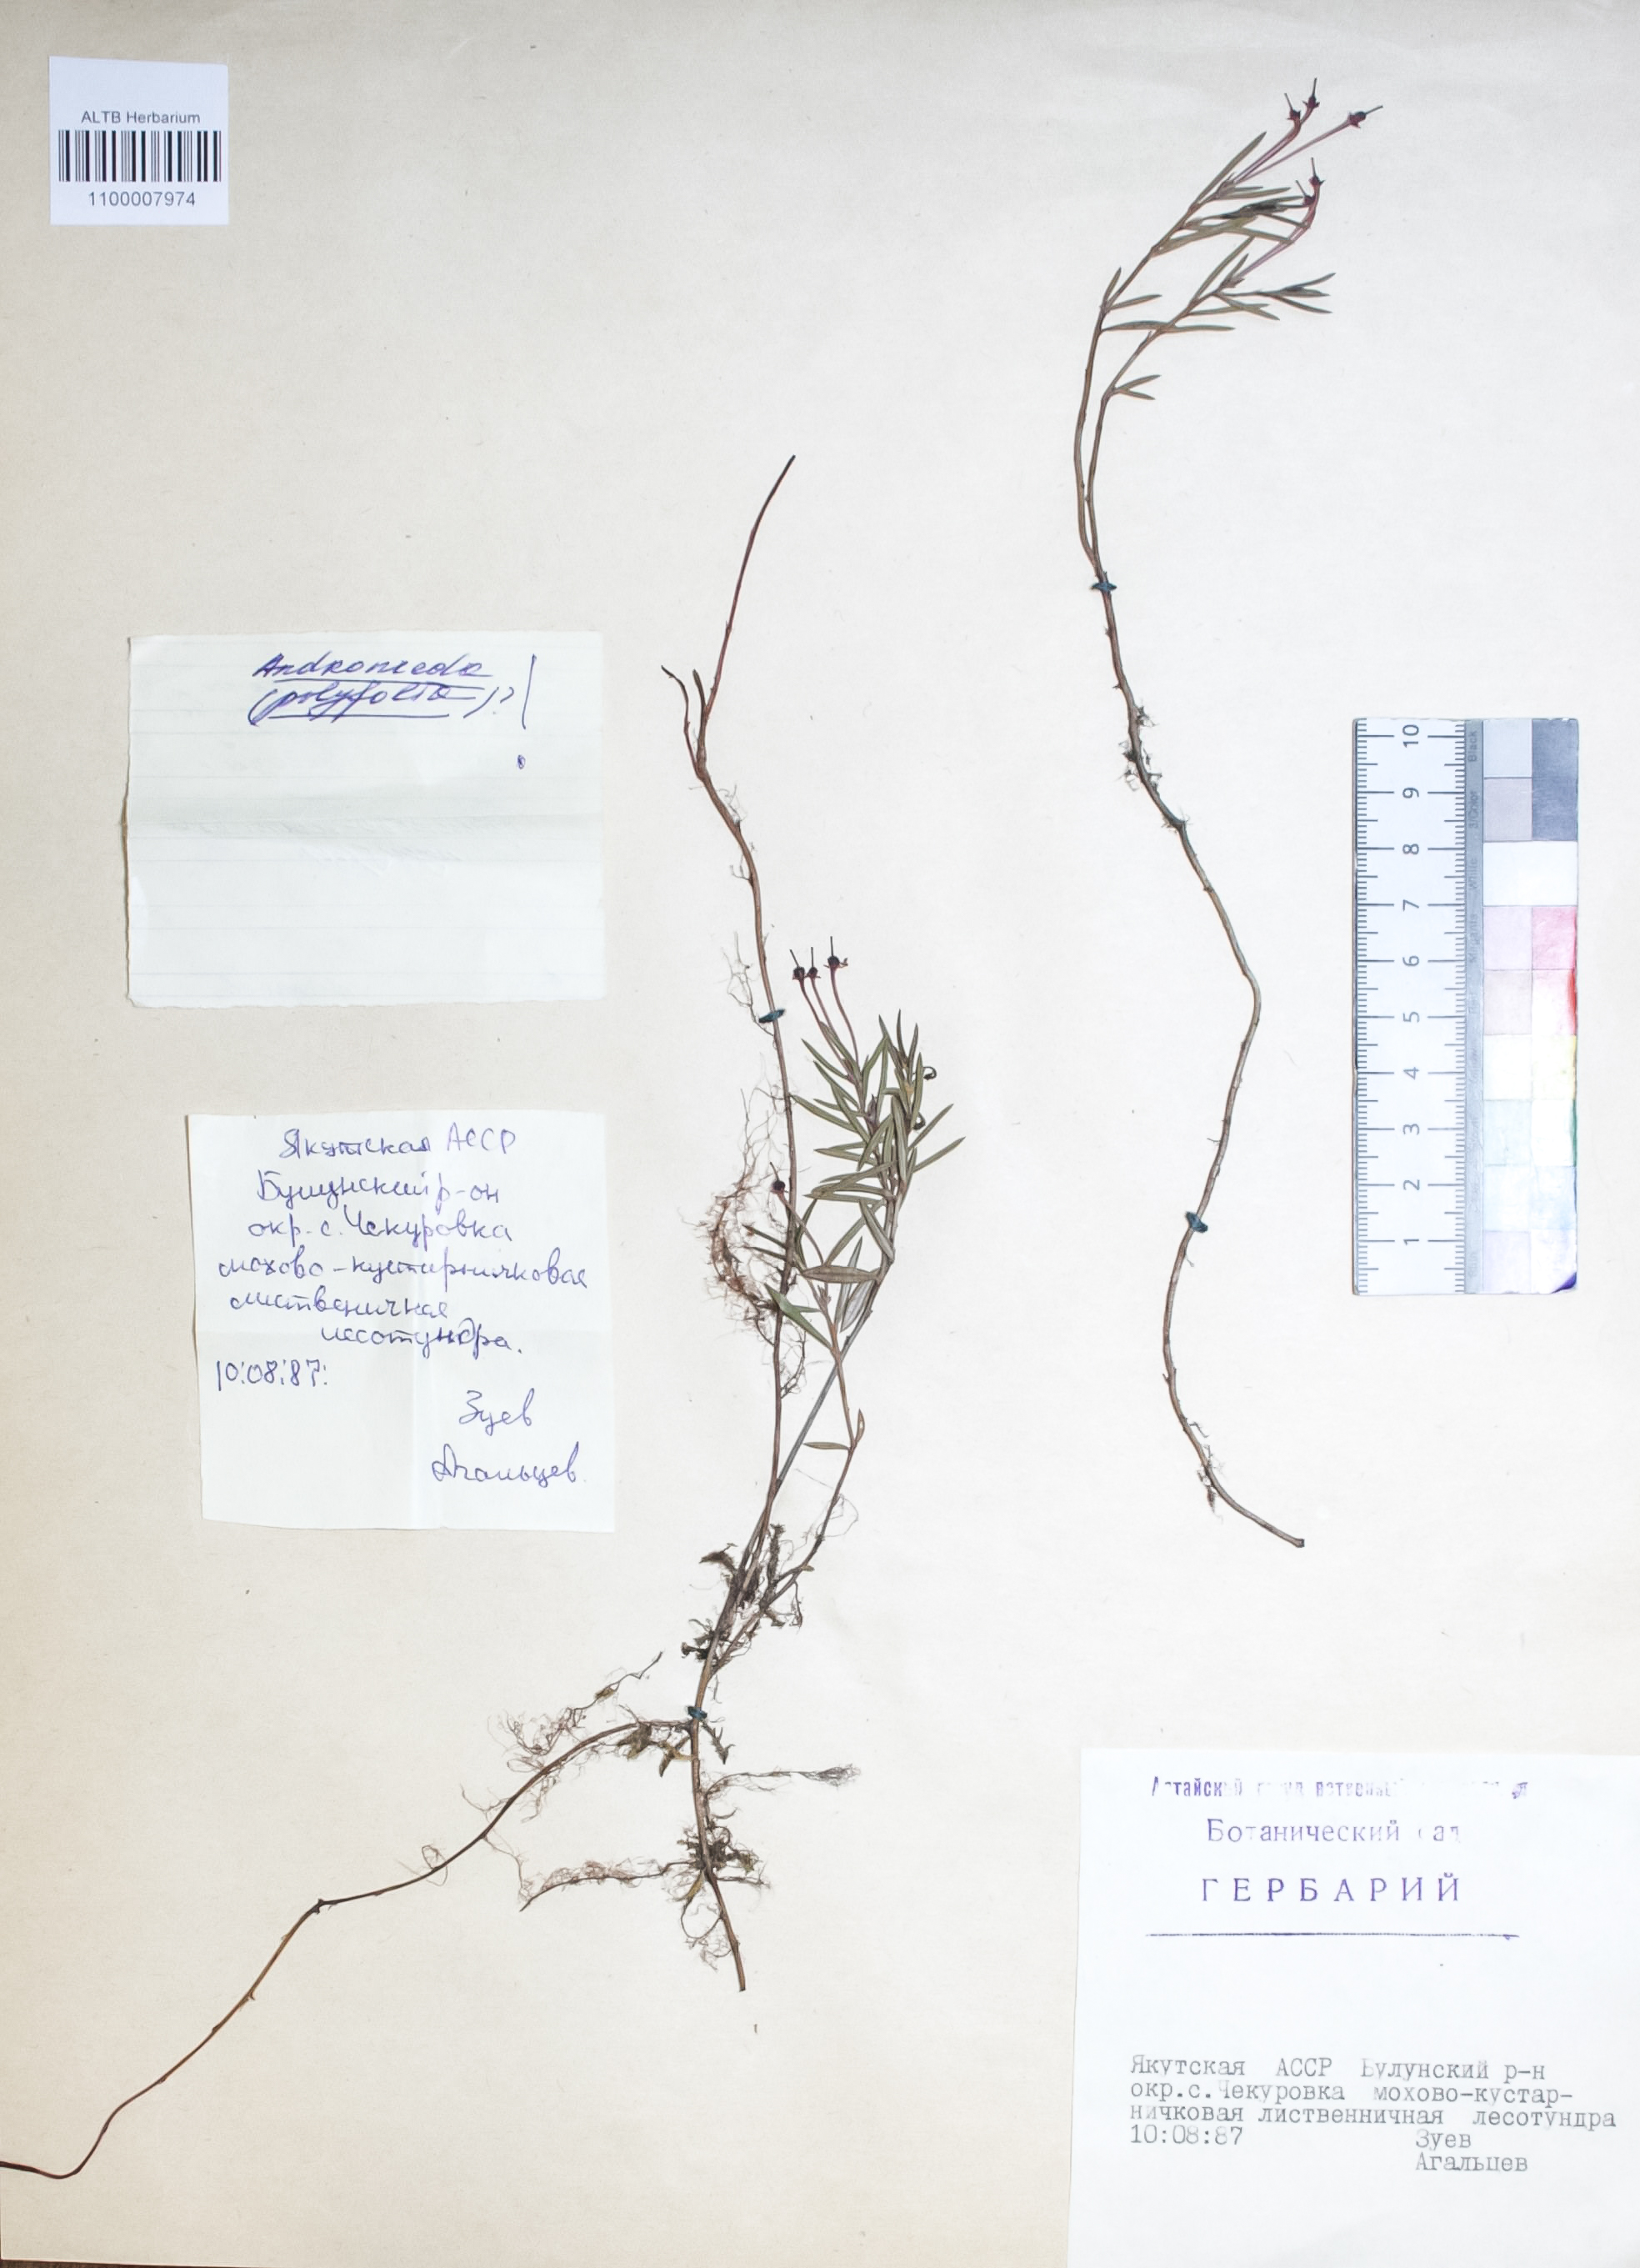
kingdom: Plantae
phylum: Tracheophyta
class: Magnoliopsida
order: Ericales
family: Ericaceae
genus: Andromeda
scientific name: Andromeda polifolia
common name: Bog-rosemary
